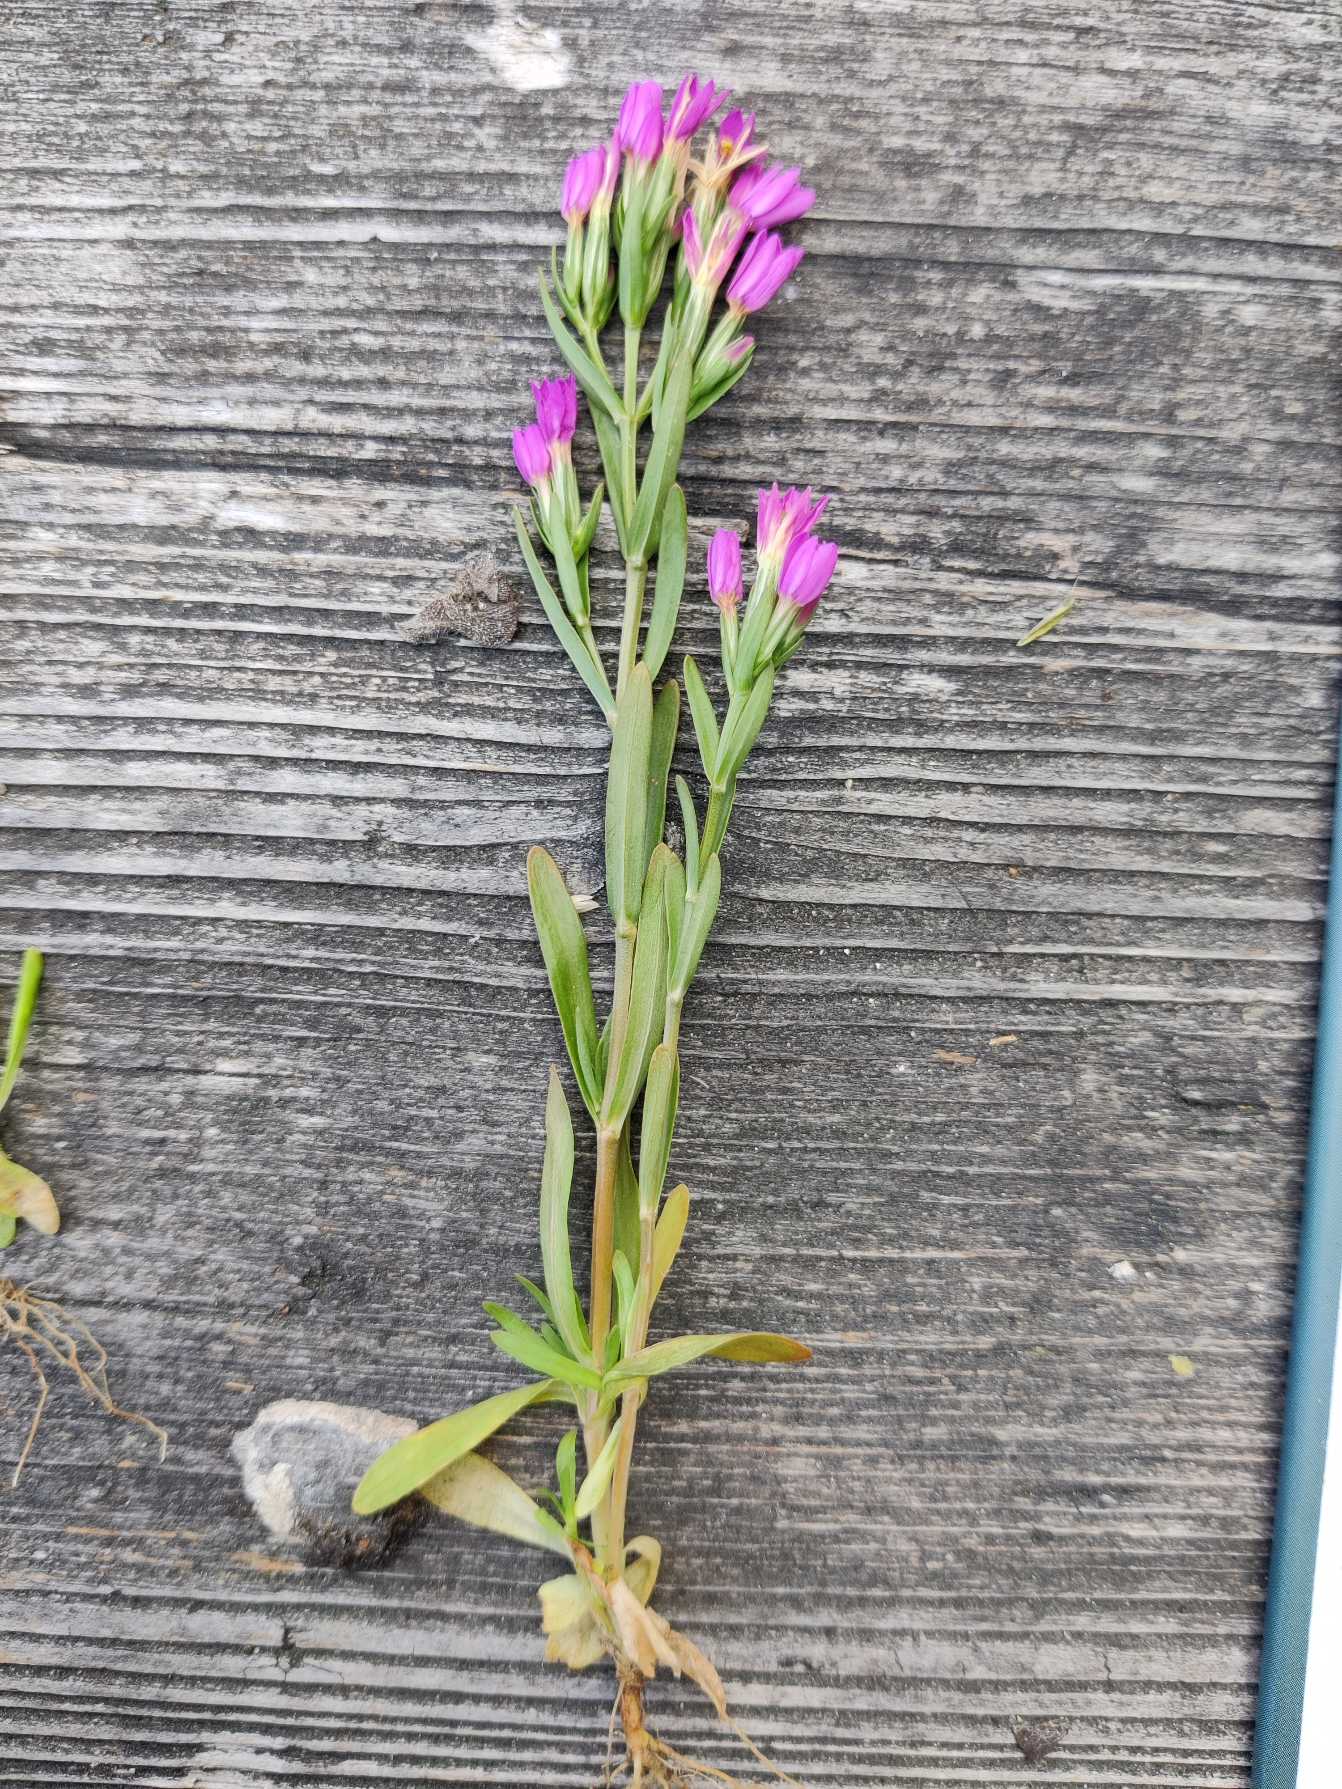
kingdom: Plantae
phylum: Tracheophyta
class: Magnoliopsida
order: Gentianales
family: Gentianaceae
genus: Centaurium
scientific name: Centaurium littorale
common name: Strand-tusindgylden
